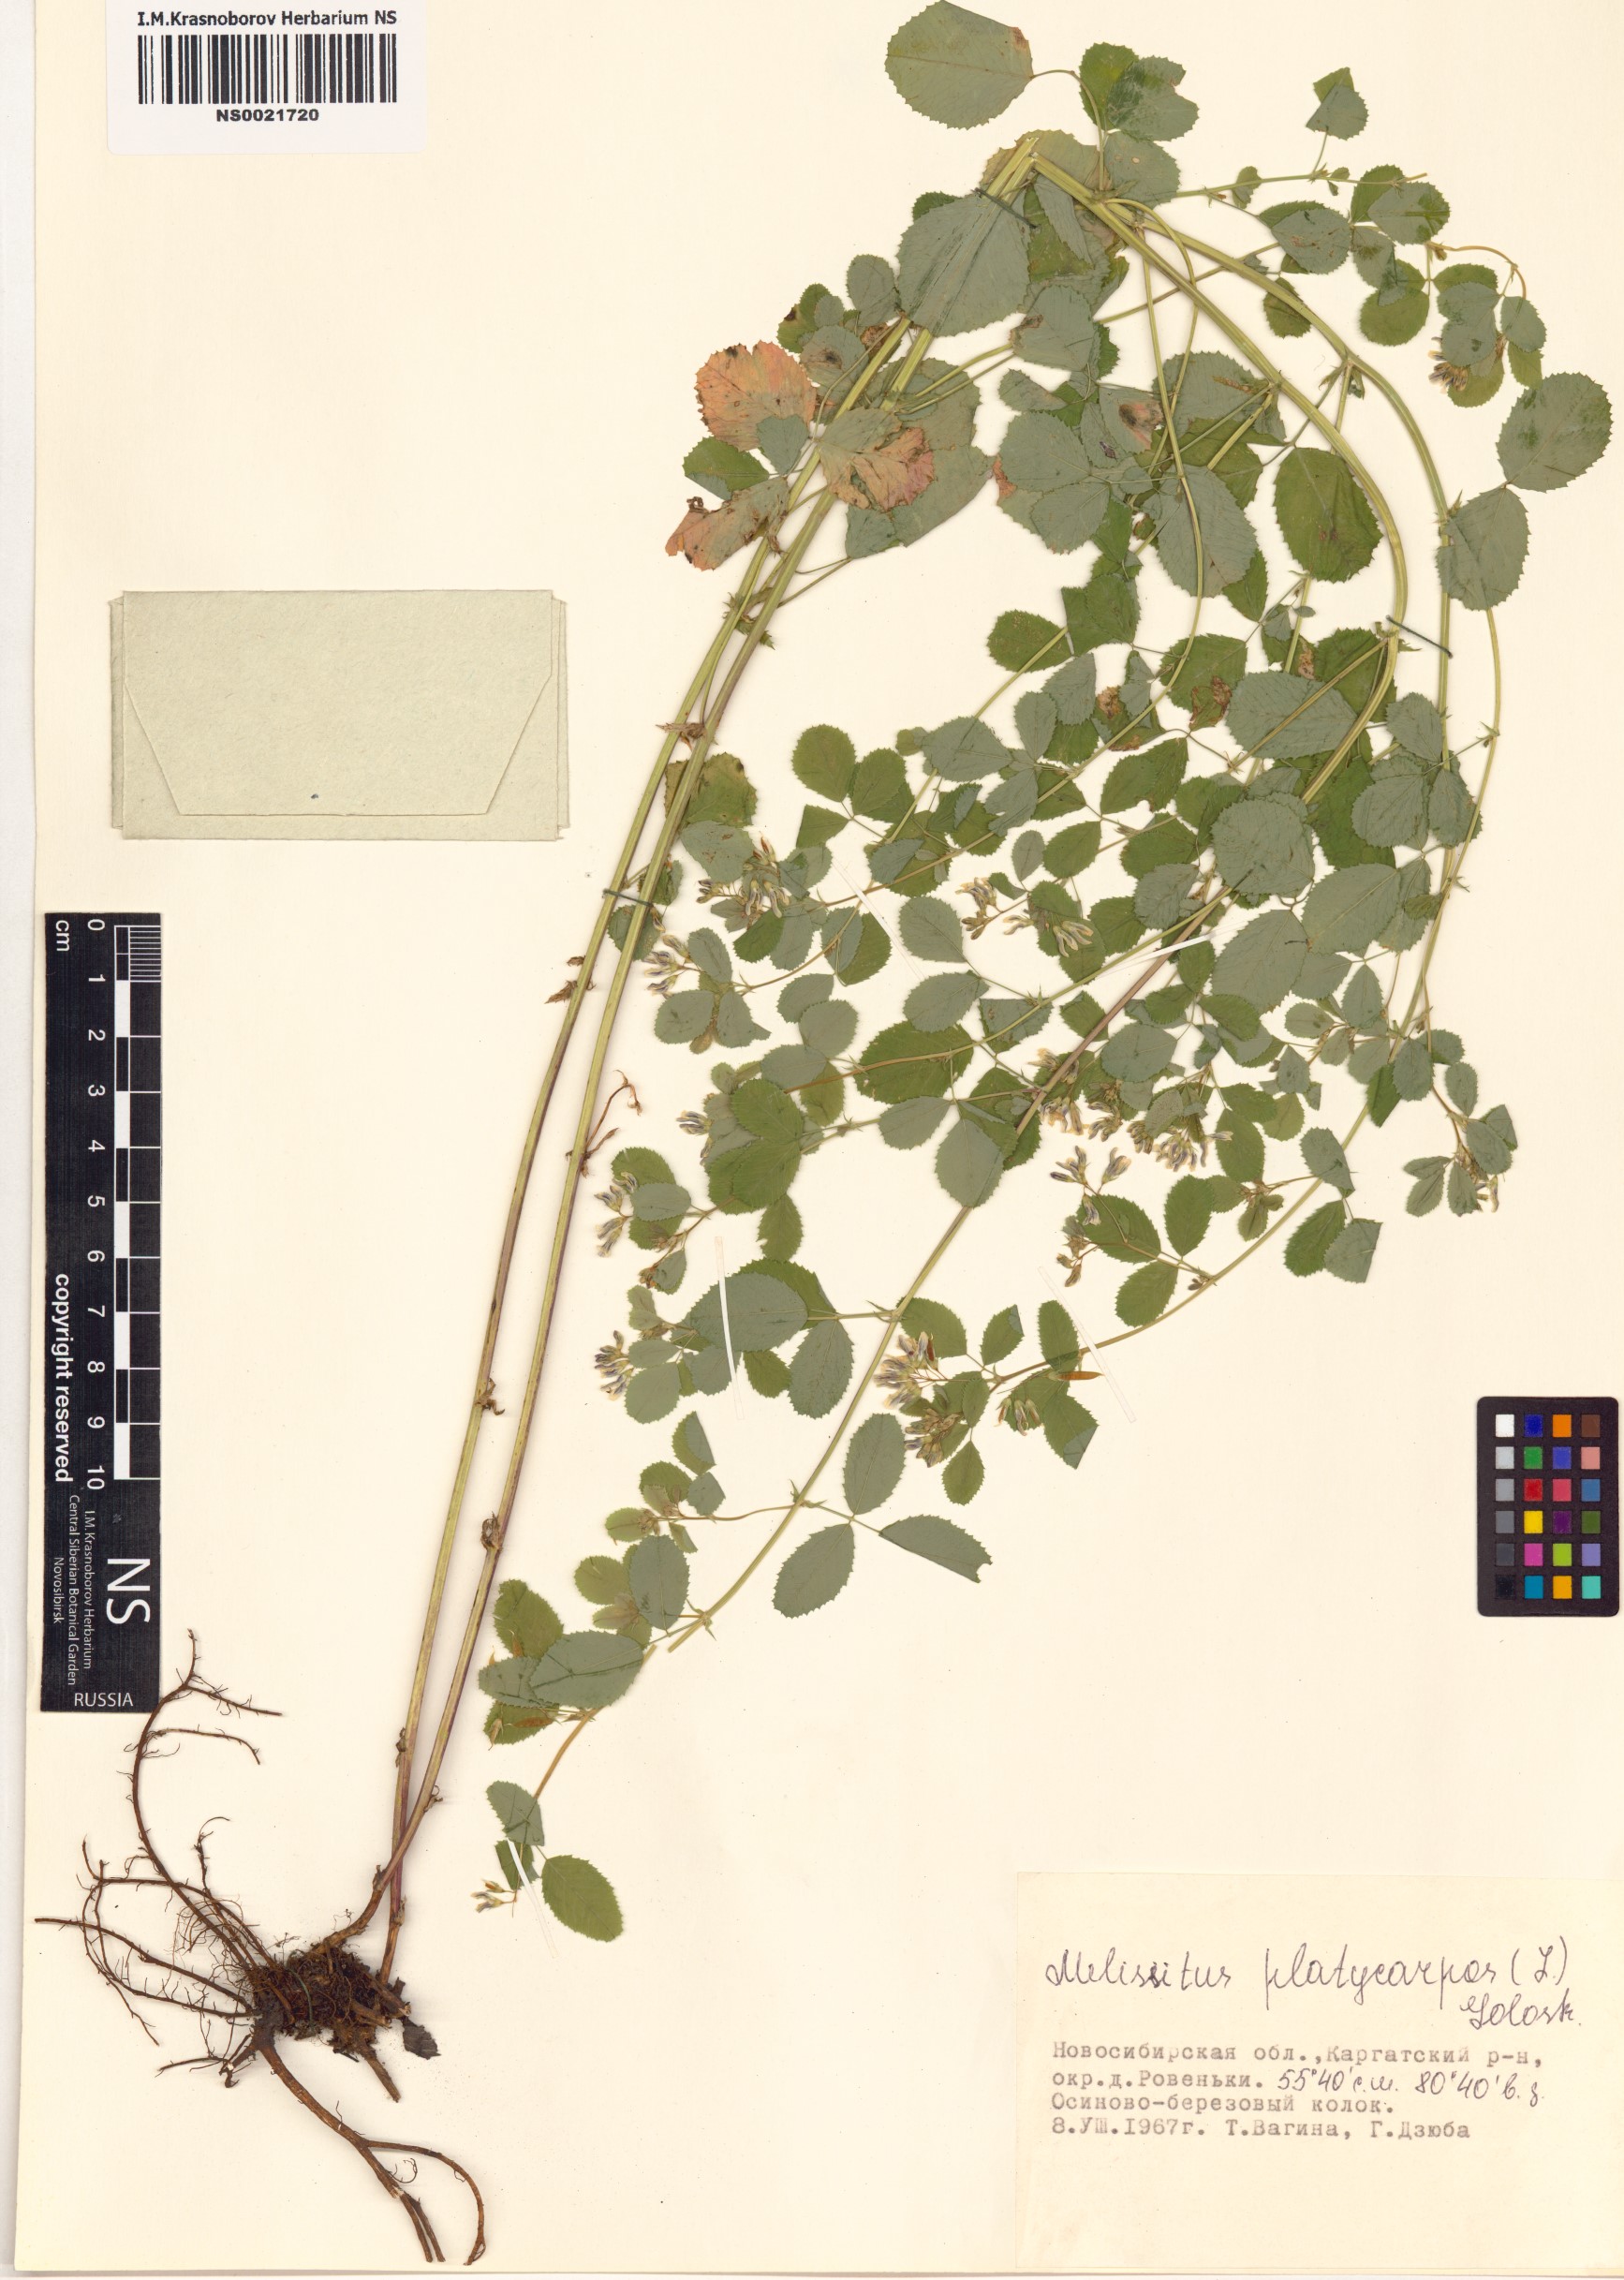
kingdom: Plantae
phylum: Tracheophyta
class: Magnoliopsida
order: Fabales
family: Fabaceae
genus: Medicago
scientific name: Medicago platycarpos
